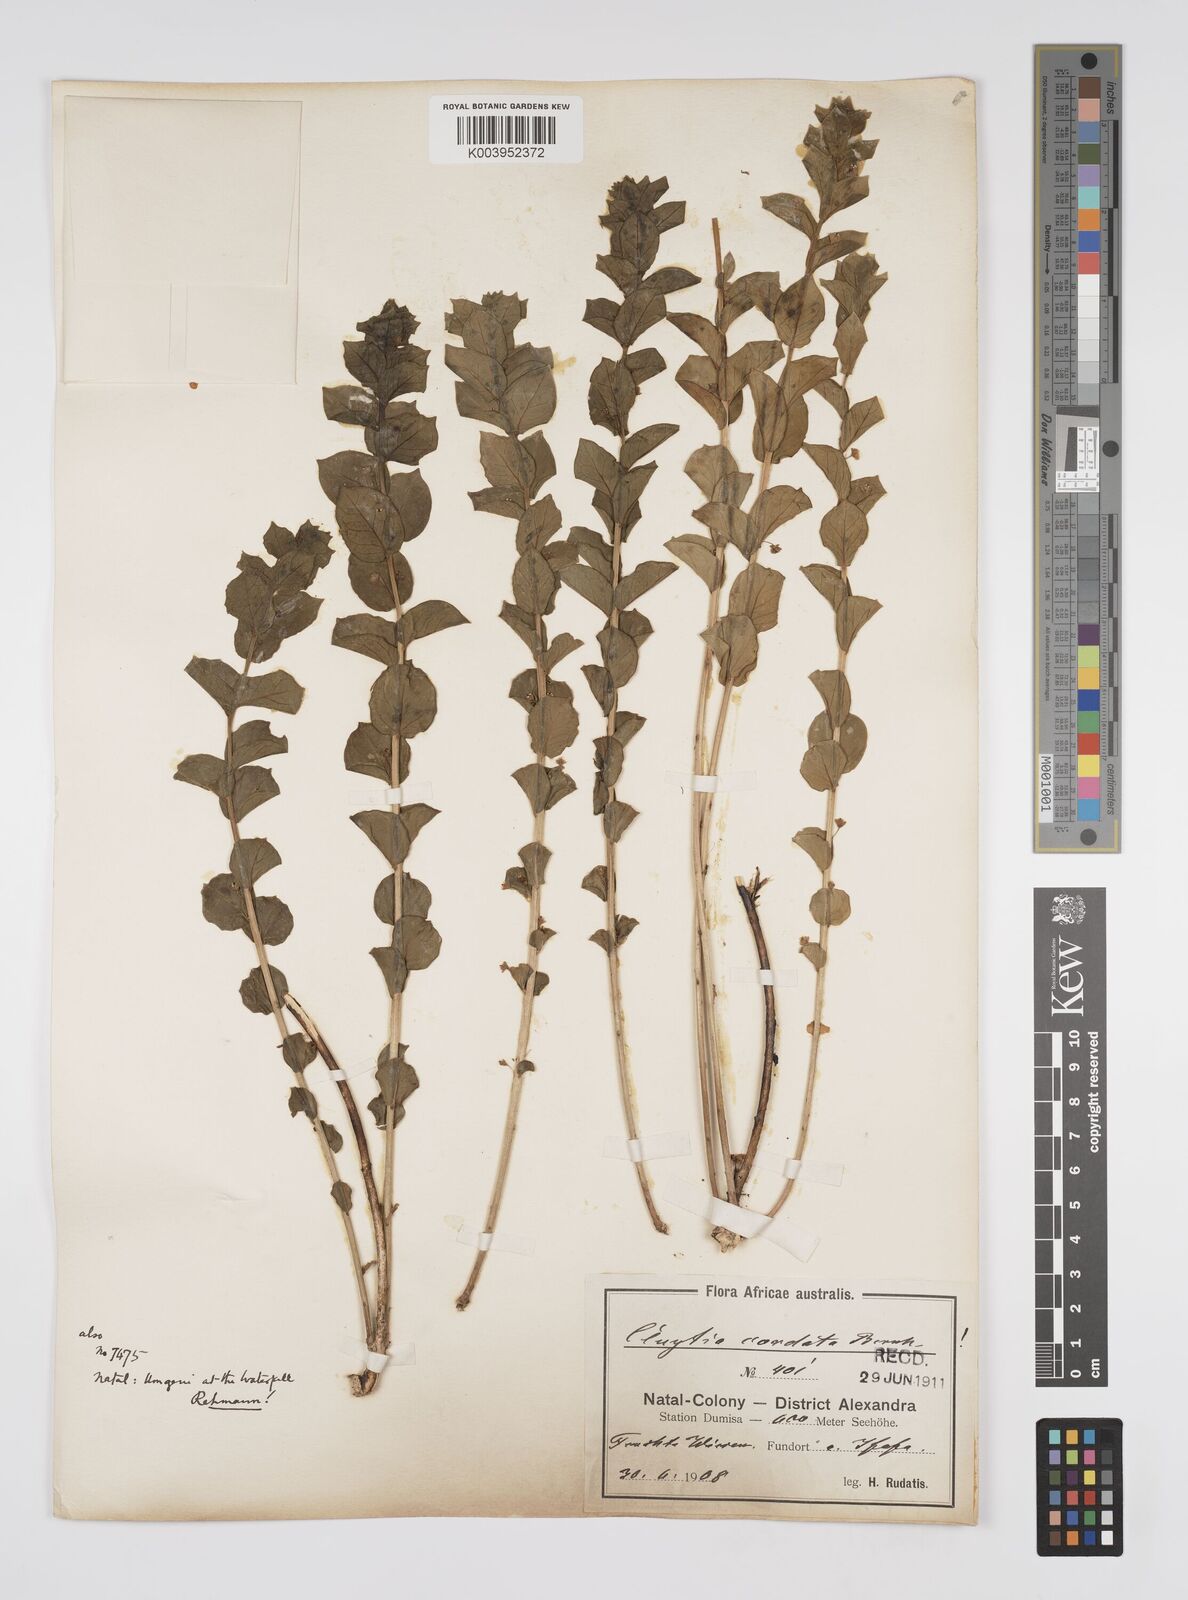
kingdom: Plantae
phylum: Tracheophyta
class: Magnoliopsida
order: Malpighiales
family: Peraceae
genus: Clutia
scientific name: Clutia cordata
